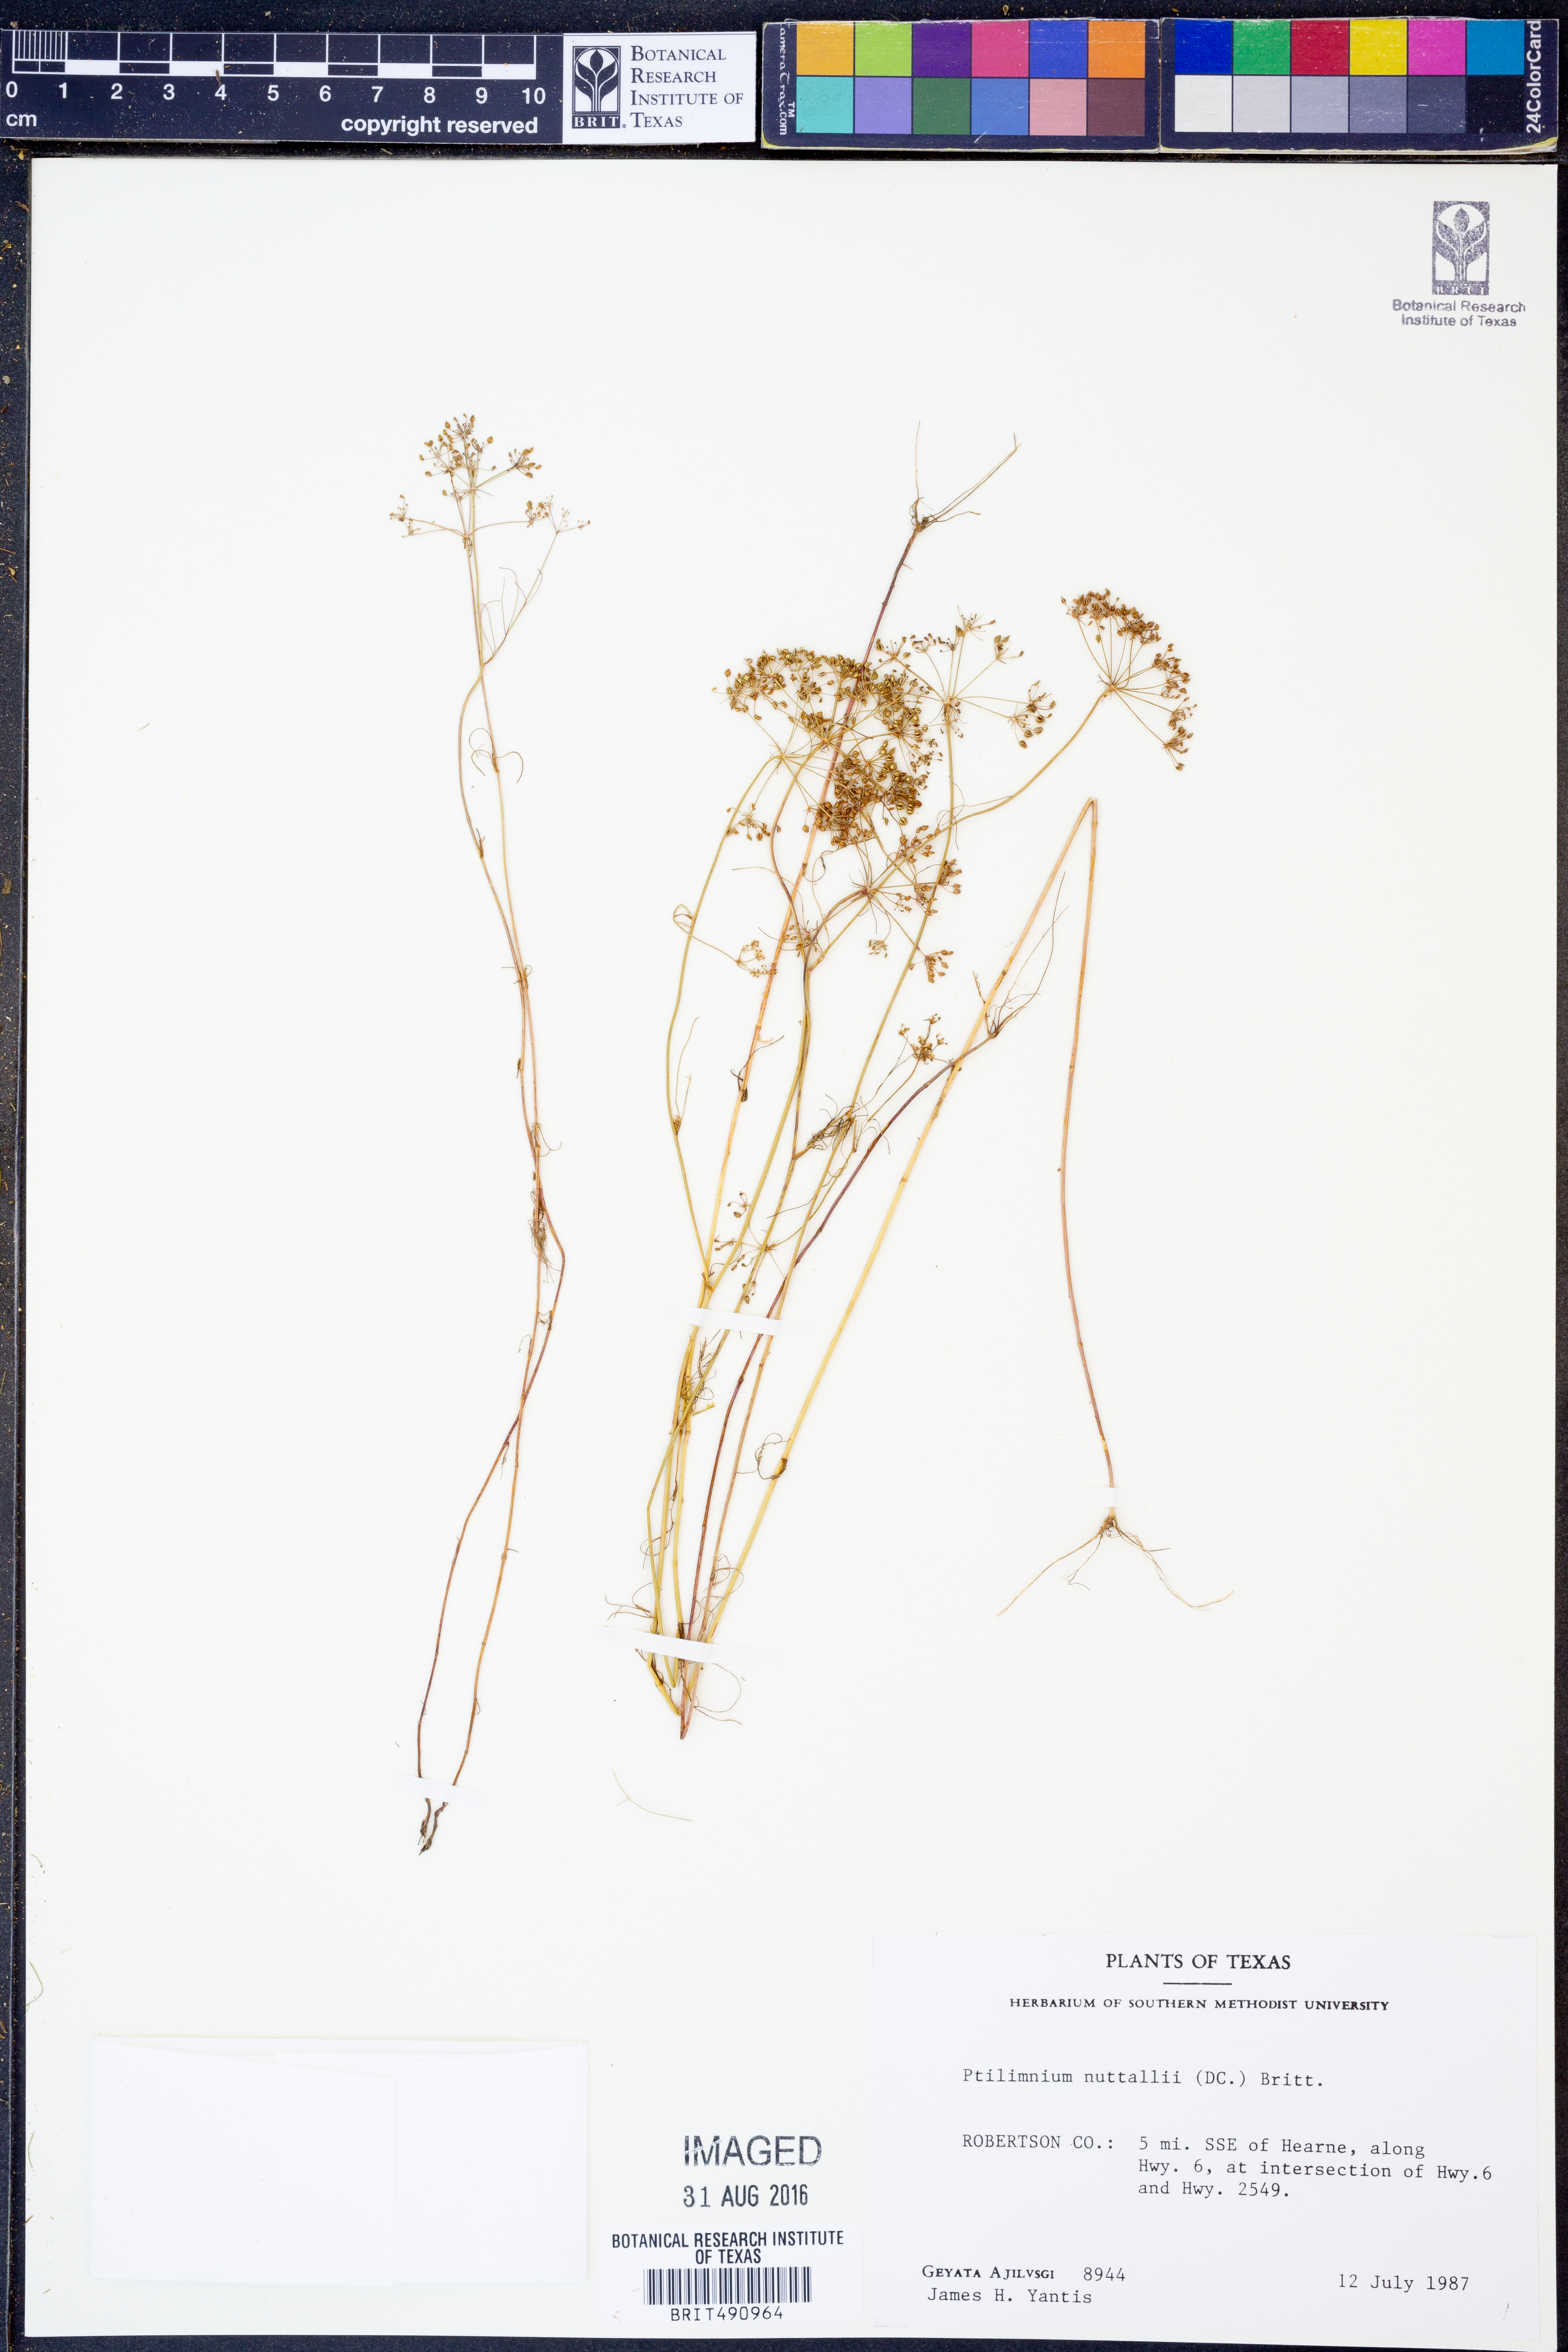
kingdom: Plantae
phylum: Tracheophyta
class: Magnoliopsida
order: Apiales
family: Apiaceae
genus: Ptilimnium
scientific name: Ptilimnium nuttallii
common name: Ozark bishop's-weed
